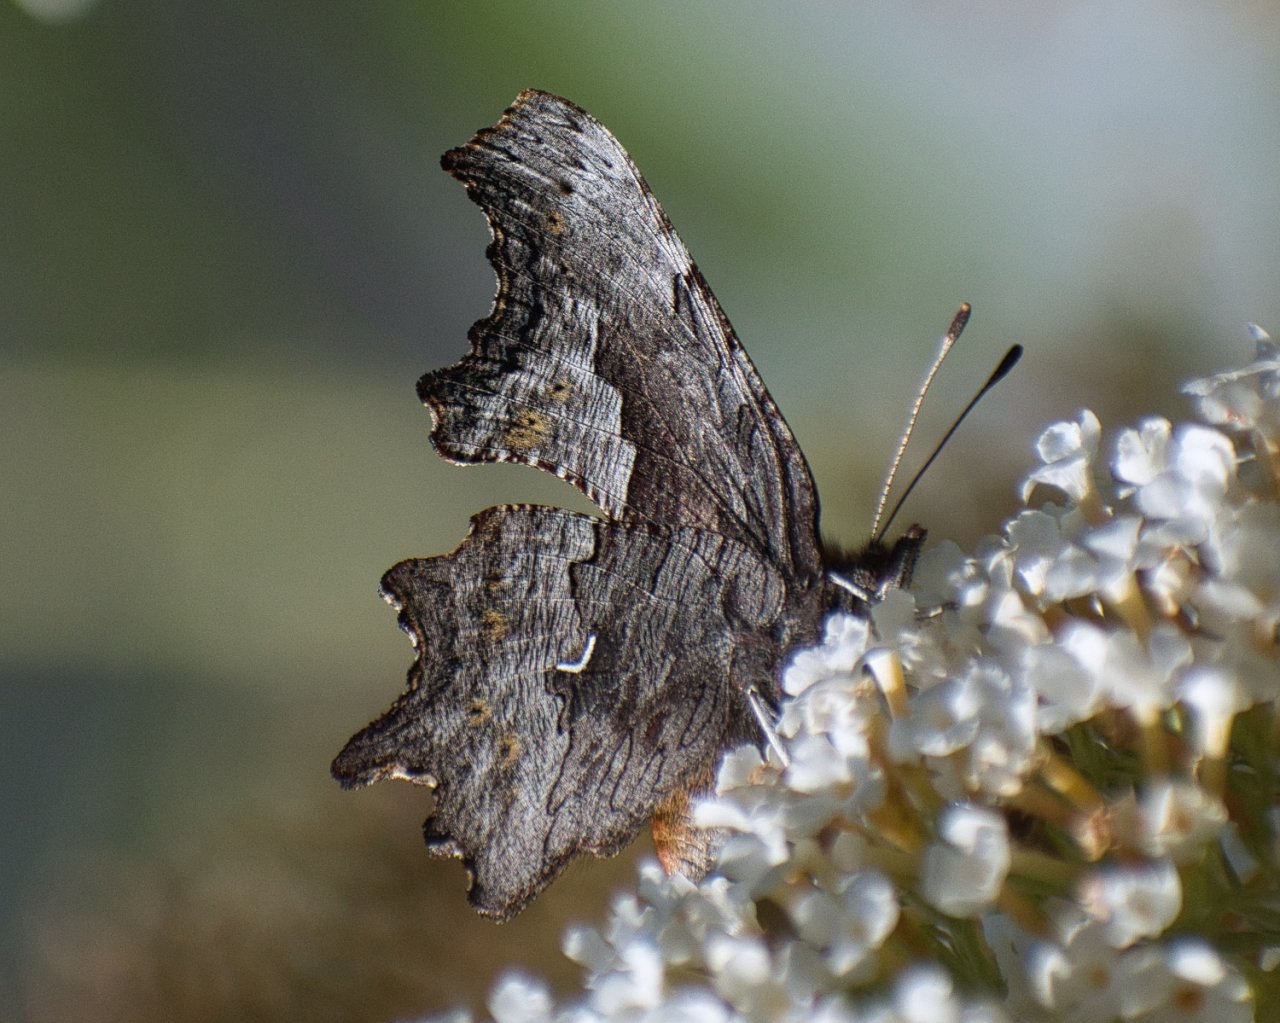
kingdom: Animalia
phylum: Arthropoda
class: Insecta
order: Lepidoptera
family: Nymphalidae
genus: Polygonia
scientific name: Polygonia gracilis
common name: Hoary Comma
